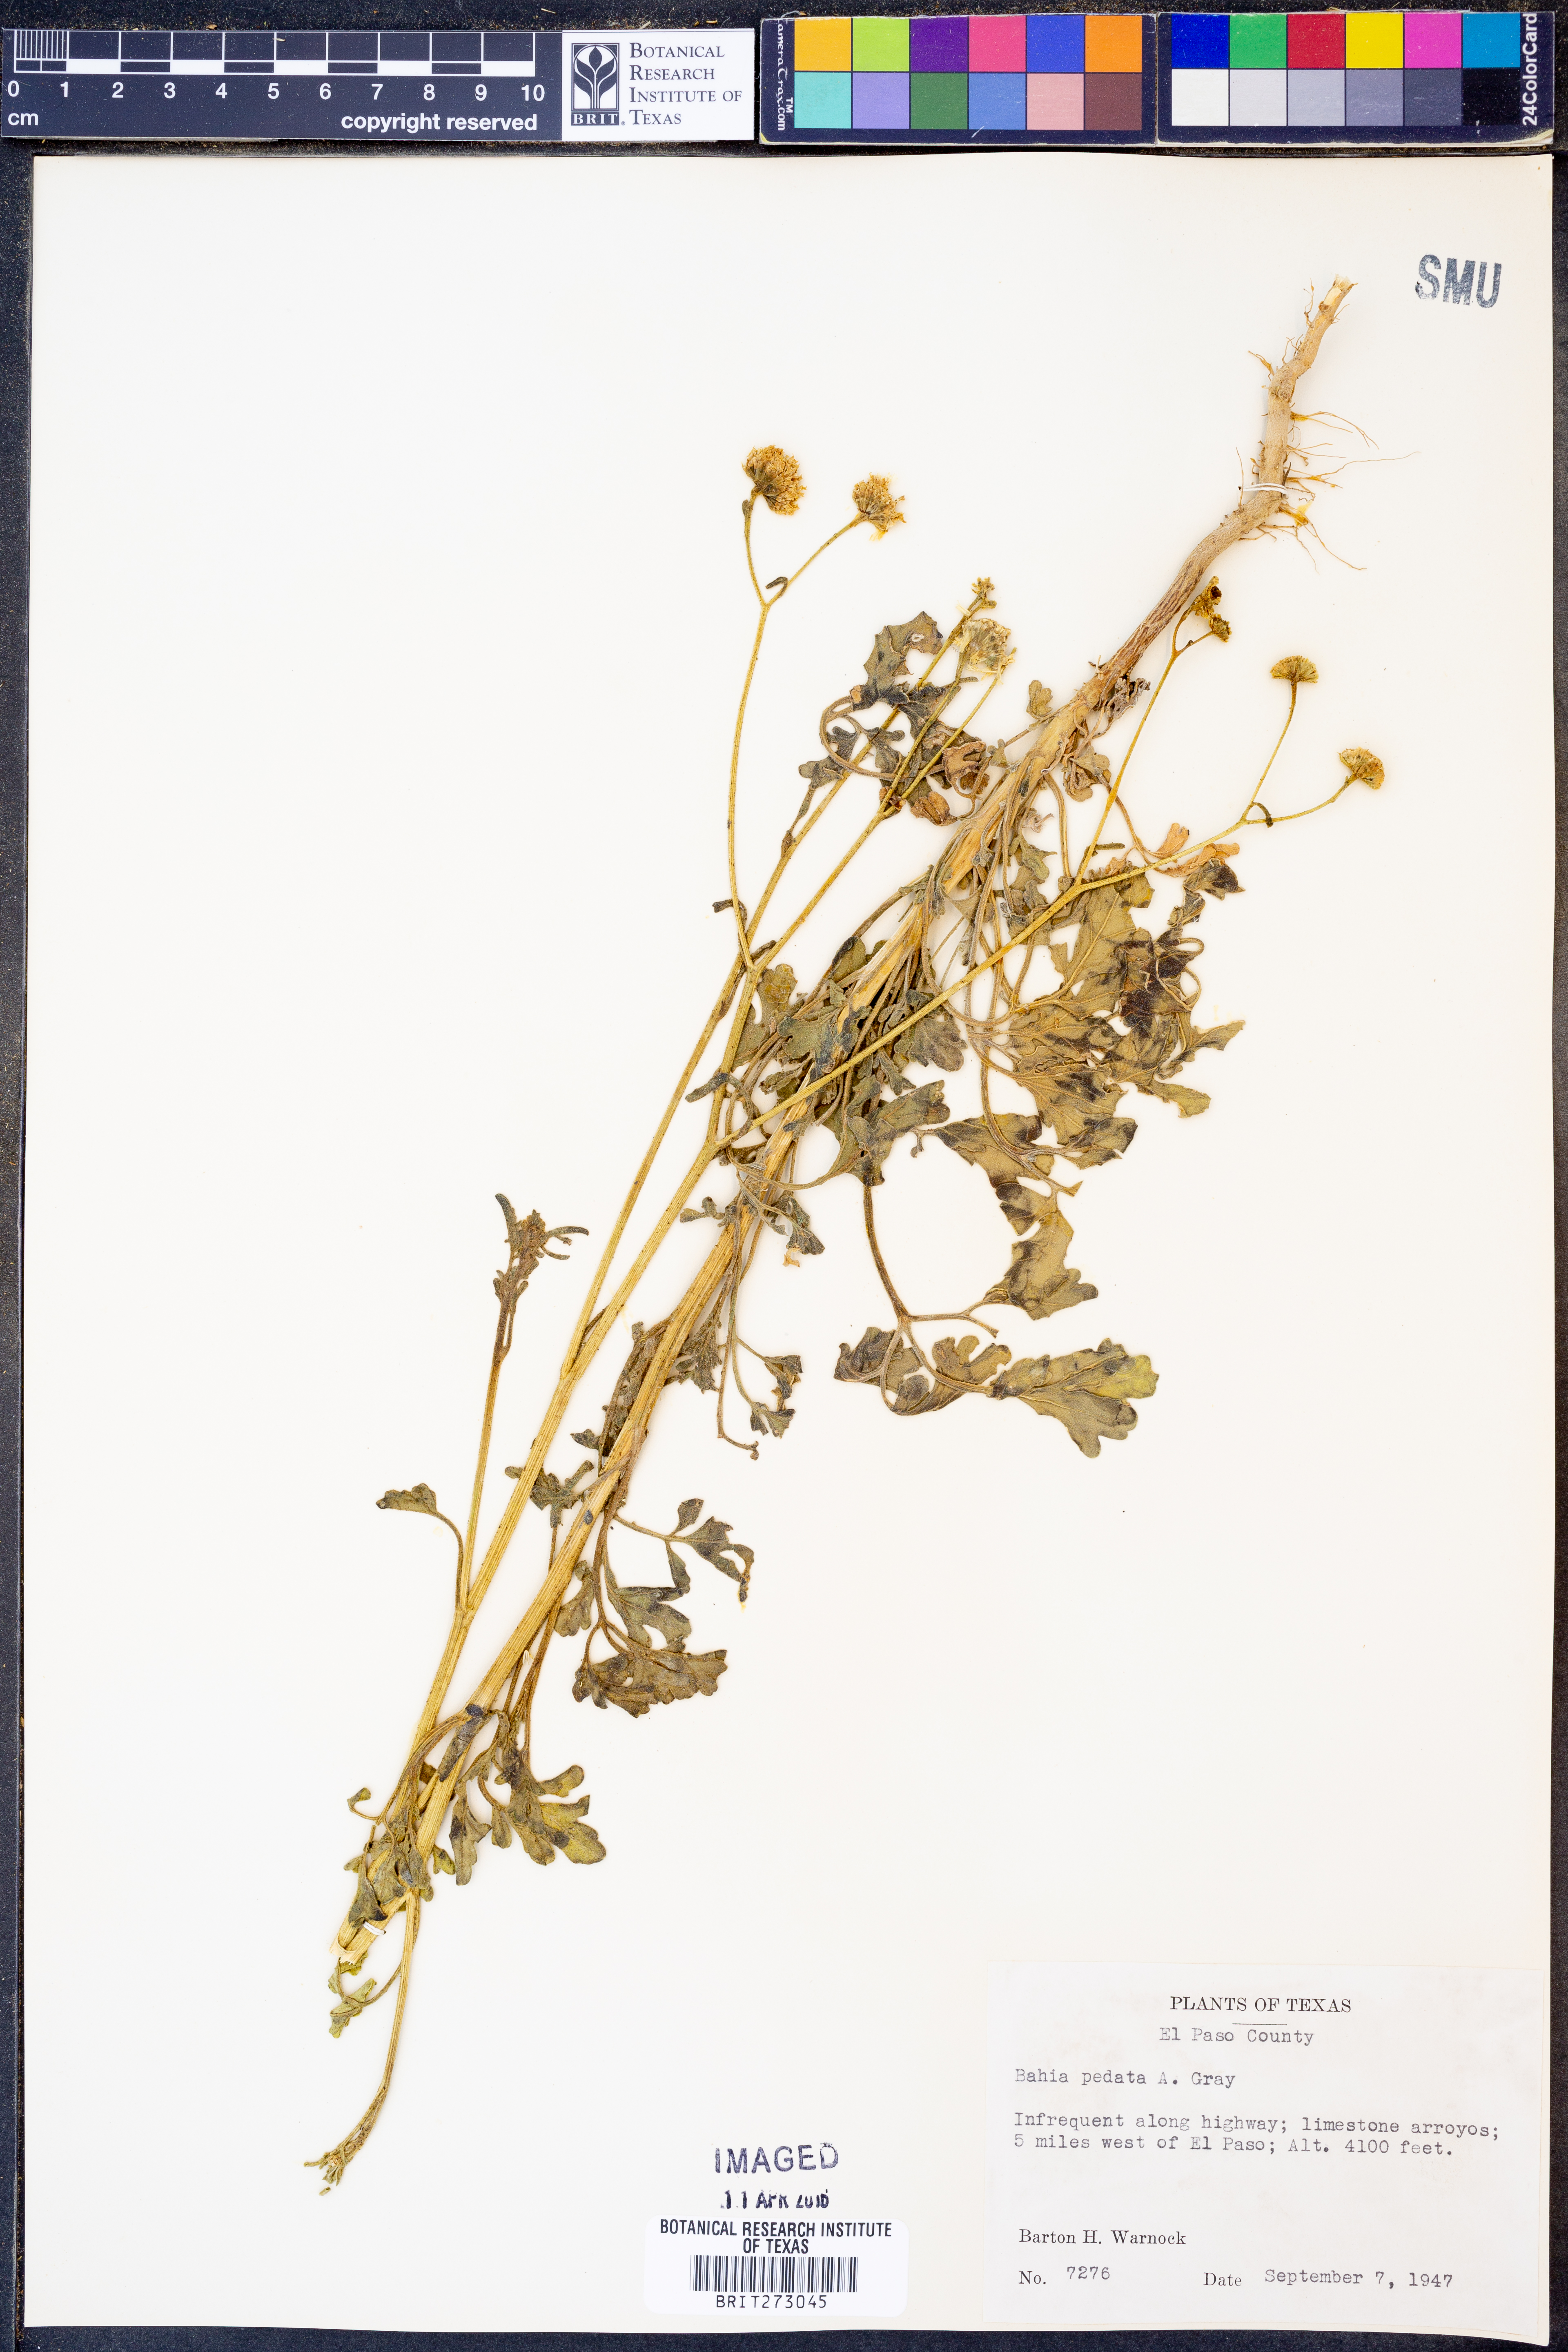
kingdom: Plantae
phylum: Tracheophyta
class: Magnoliopsida
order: Asterales
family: Asteraceae
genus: Hymenothrix
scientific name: Hymenothrix pedata
